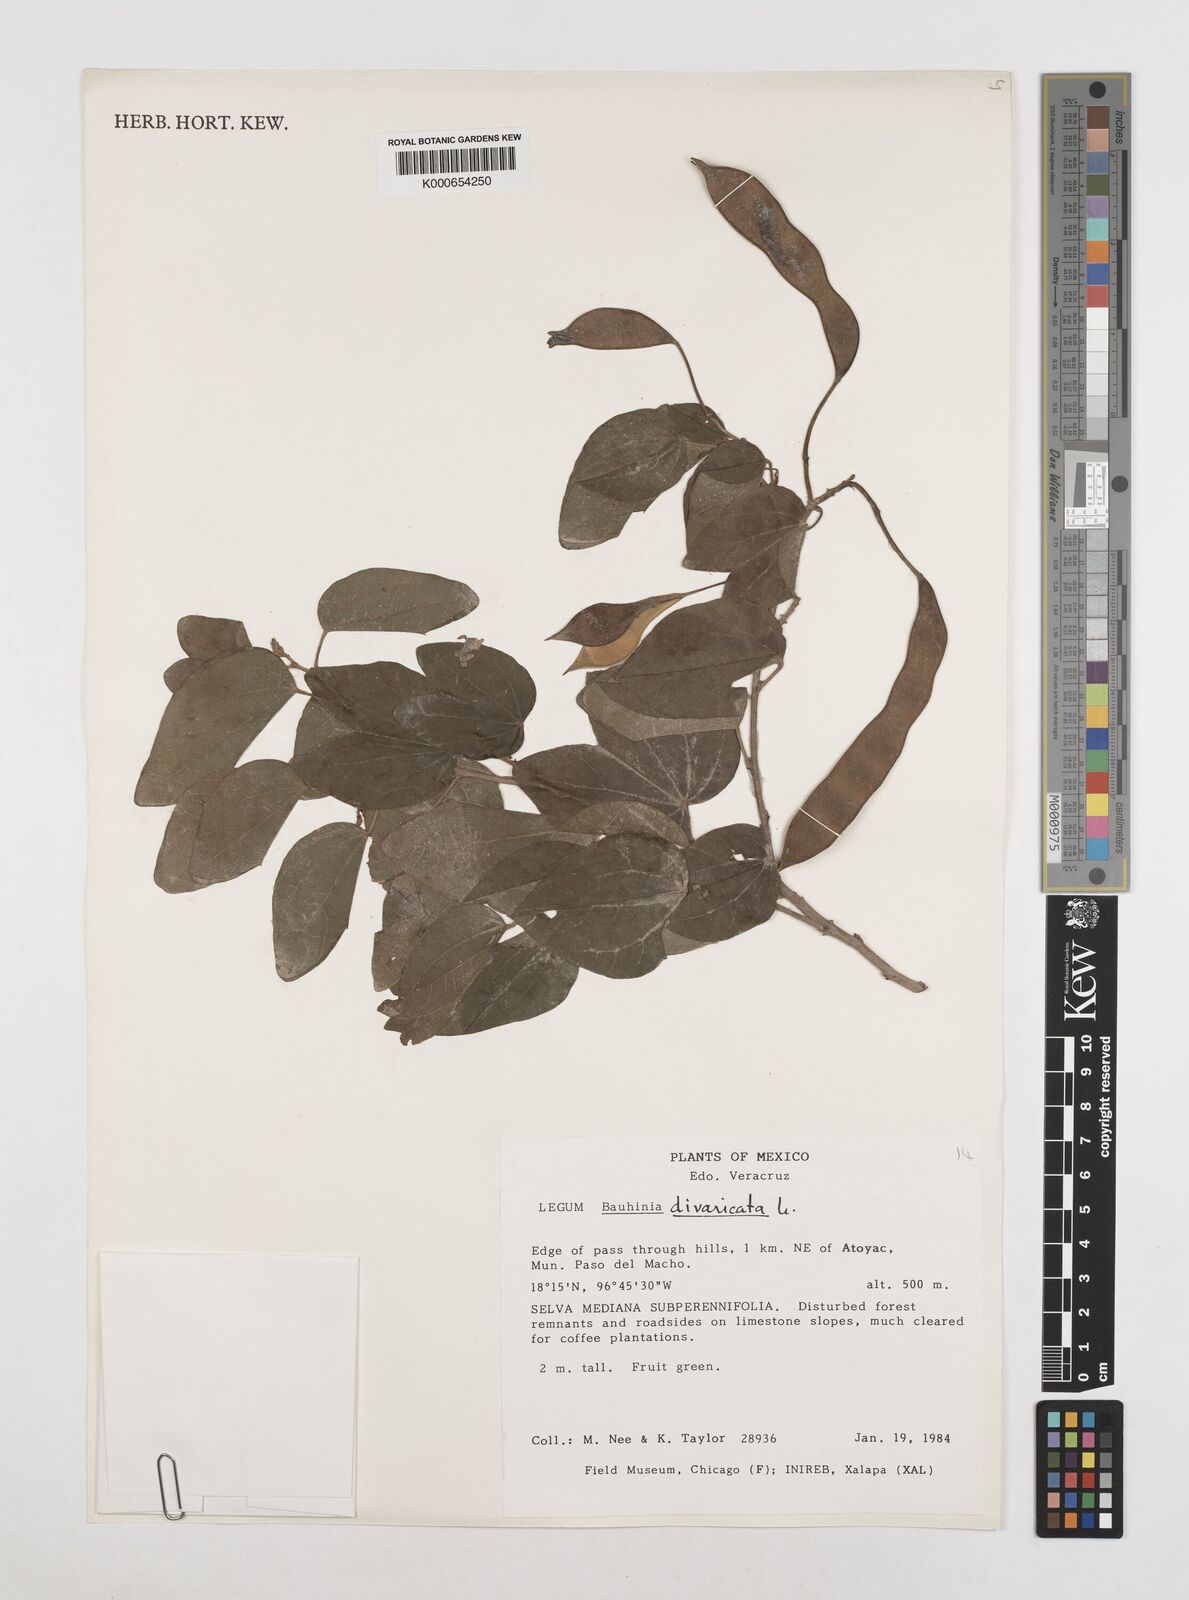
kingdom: Plantae
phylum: Tracheophyta
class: Magnoliopsida
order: Fabales
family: Fabaceae
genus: Bauhinia
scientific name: Bauhinia divaricata
